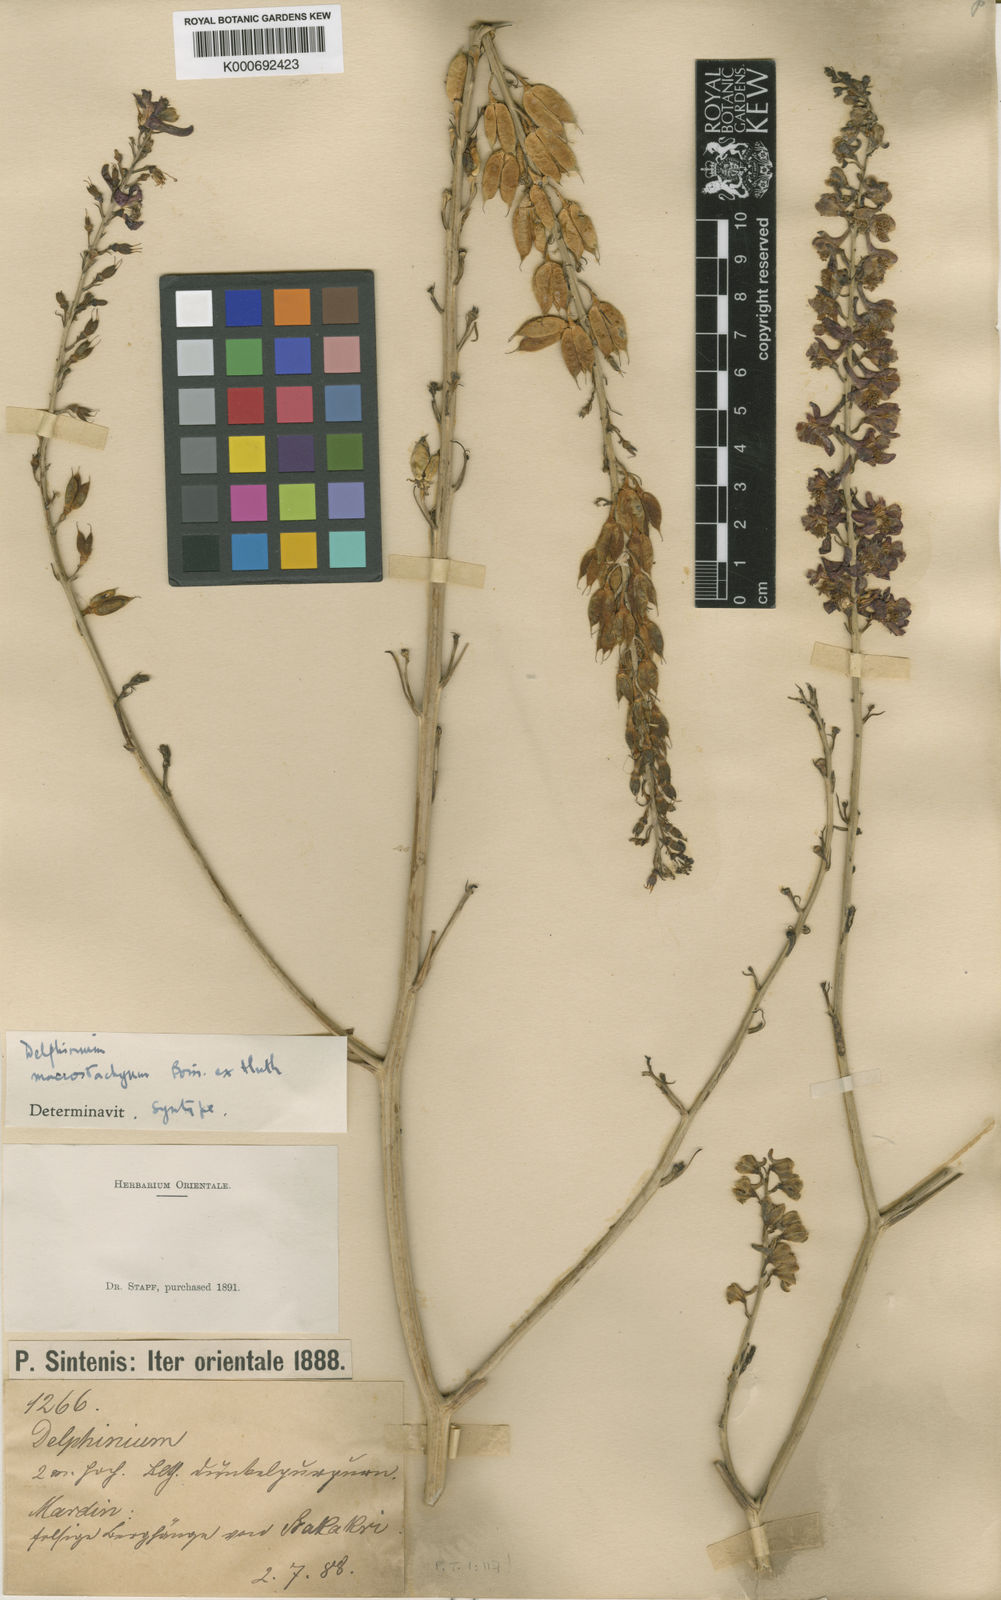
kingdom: Plantae
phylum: Tracheophyta
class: Magnoliopsida
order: Ranunculales
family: Ranunculaceae
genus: Delphinium
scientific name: Delphinium macrostachyum
